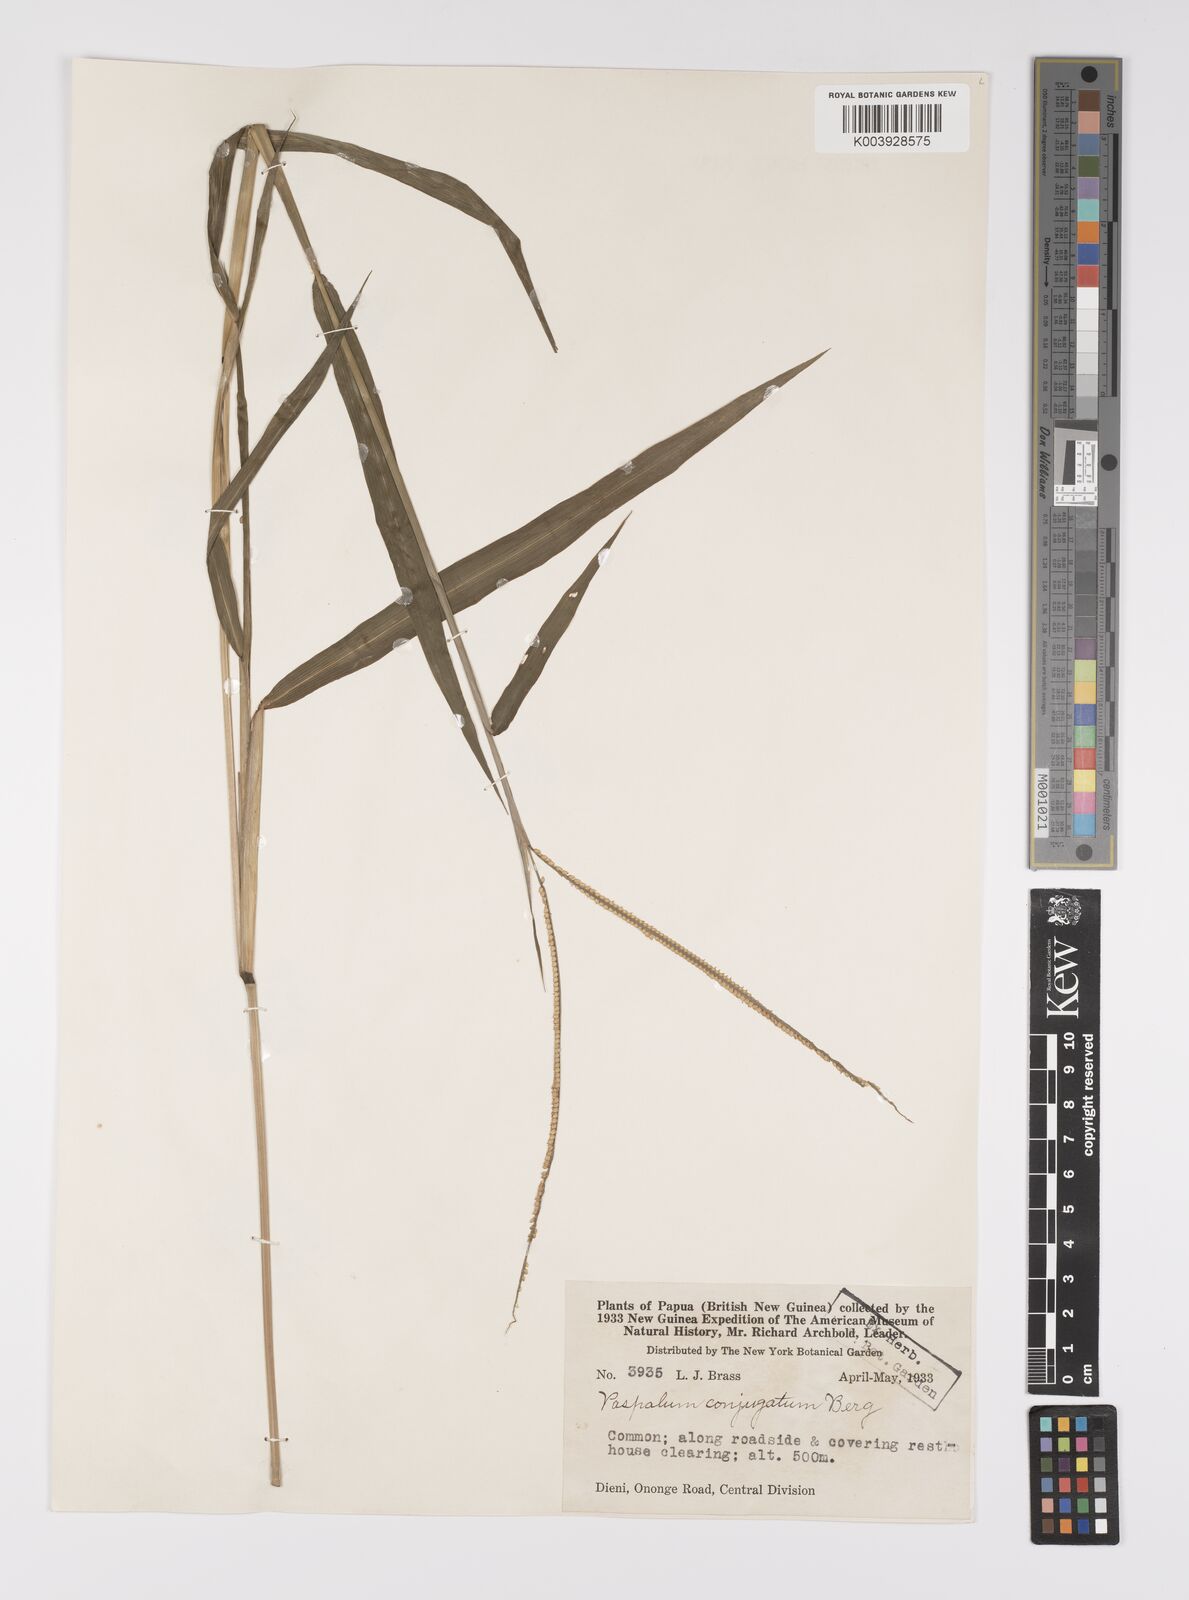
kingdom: Plantae
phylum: Tracheophyta
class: Liliopsida
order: Poales
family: Poaceae
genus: Paspalum
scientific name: Paspalum conjugatum
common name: Hilograss
